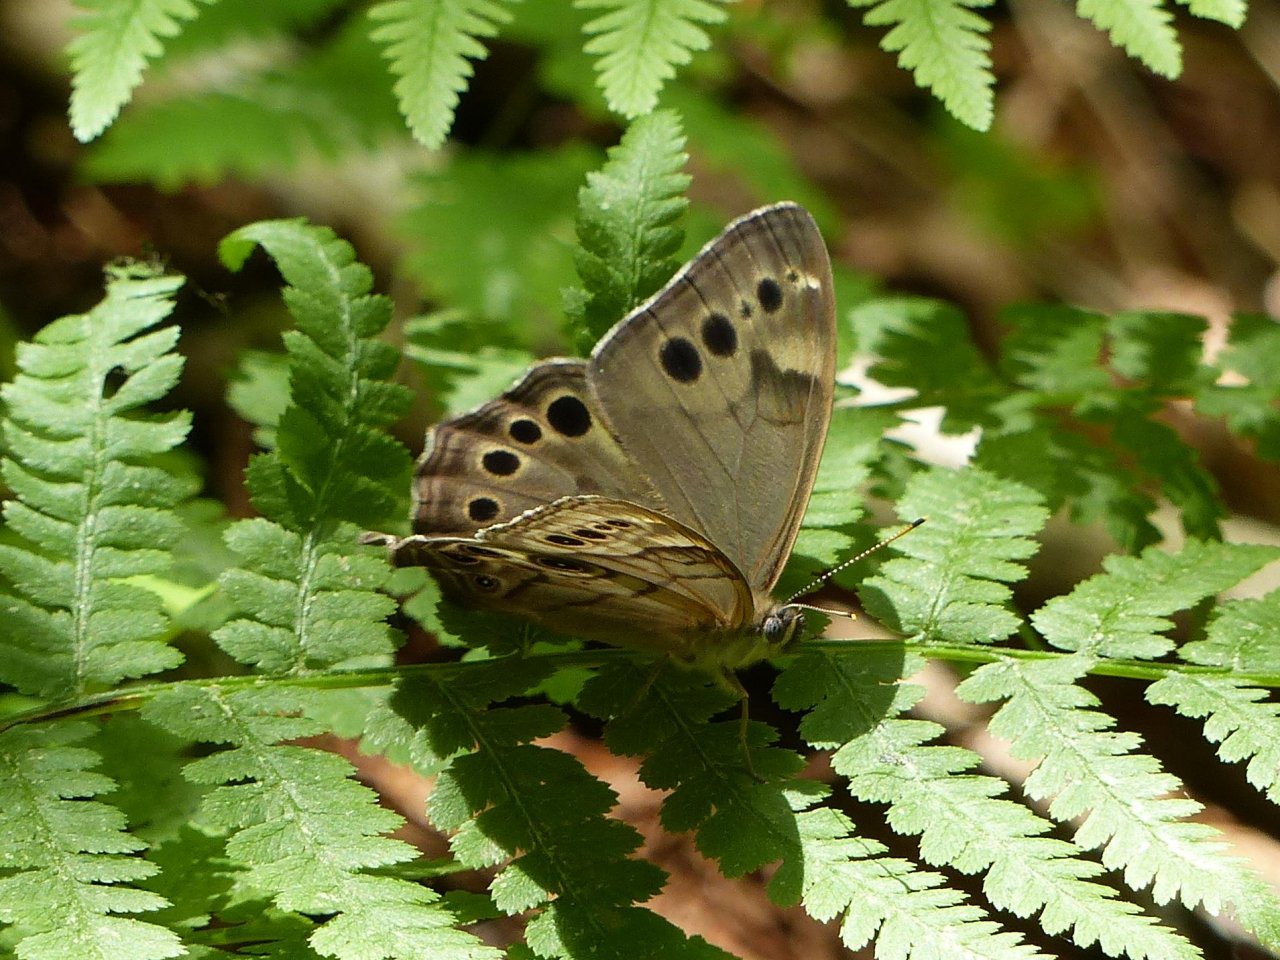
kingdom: Animalia
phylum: Arthropoda
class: Insecta
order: Lepidoptera
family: Nymphalidae
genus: Lethe
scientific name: Lethe anthedon
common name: Northern Pearly-Eye
